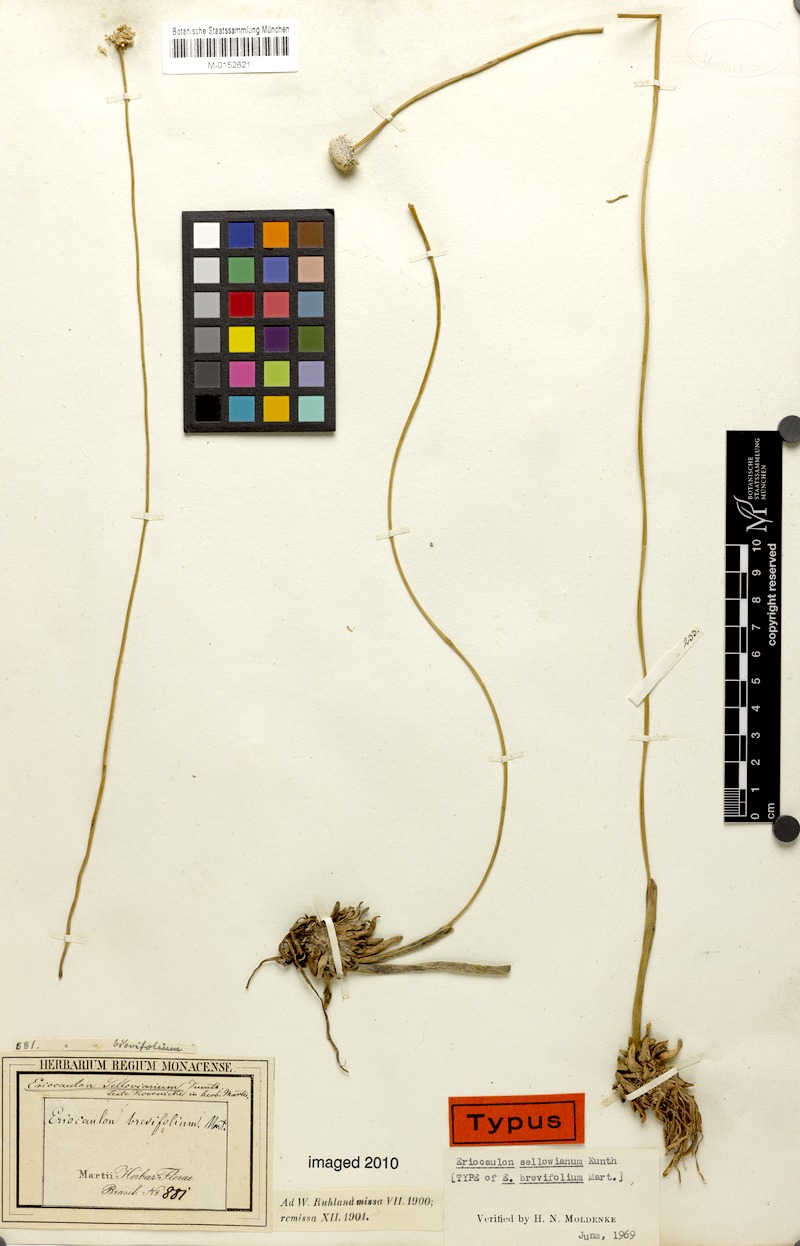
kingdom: Plantae
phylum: Tracheophyta
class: Liliopsida
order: Poales
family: Eriocaulaceae
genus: Eriocaulon
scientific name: Eriocaulon sellowianum
